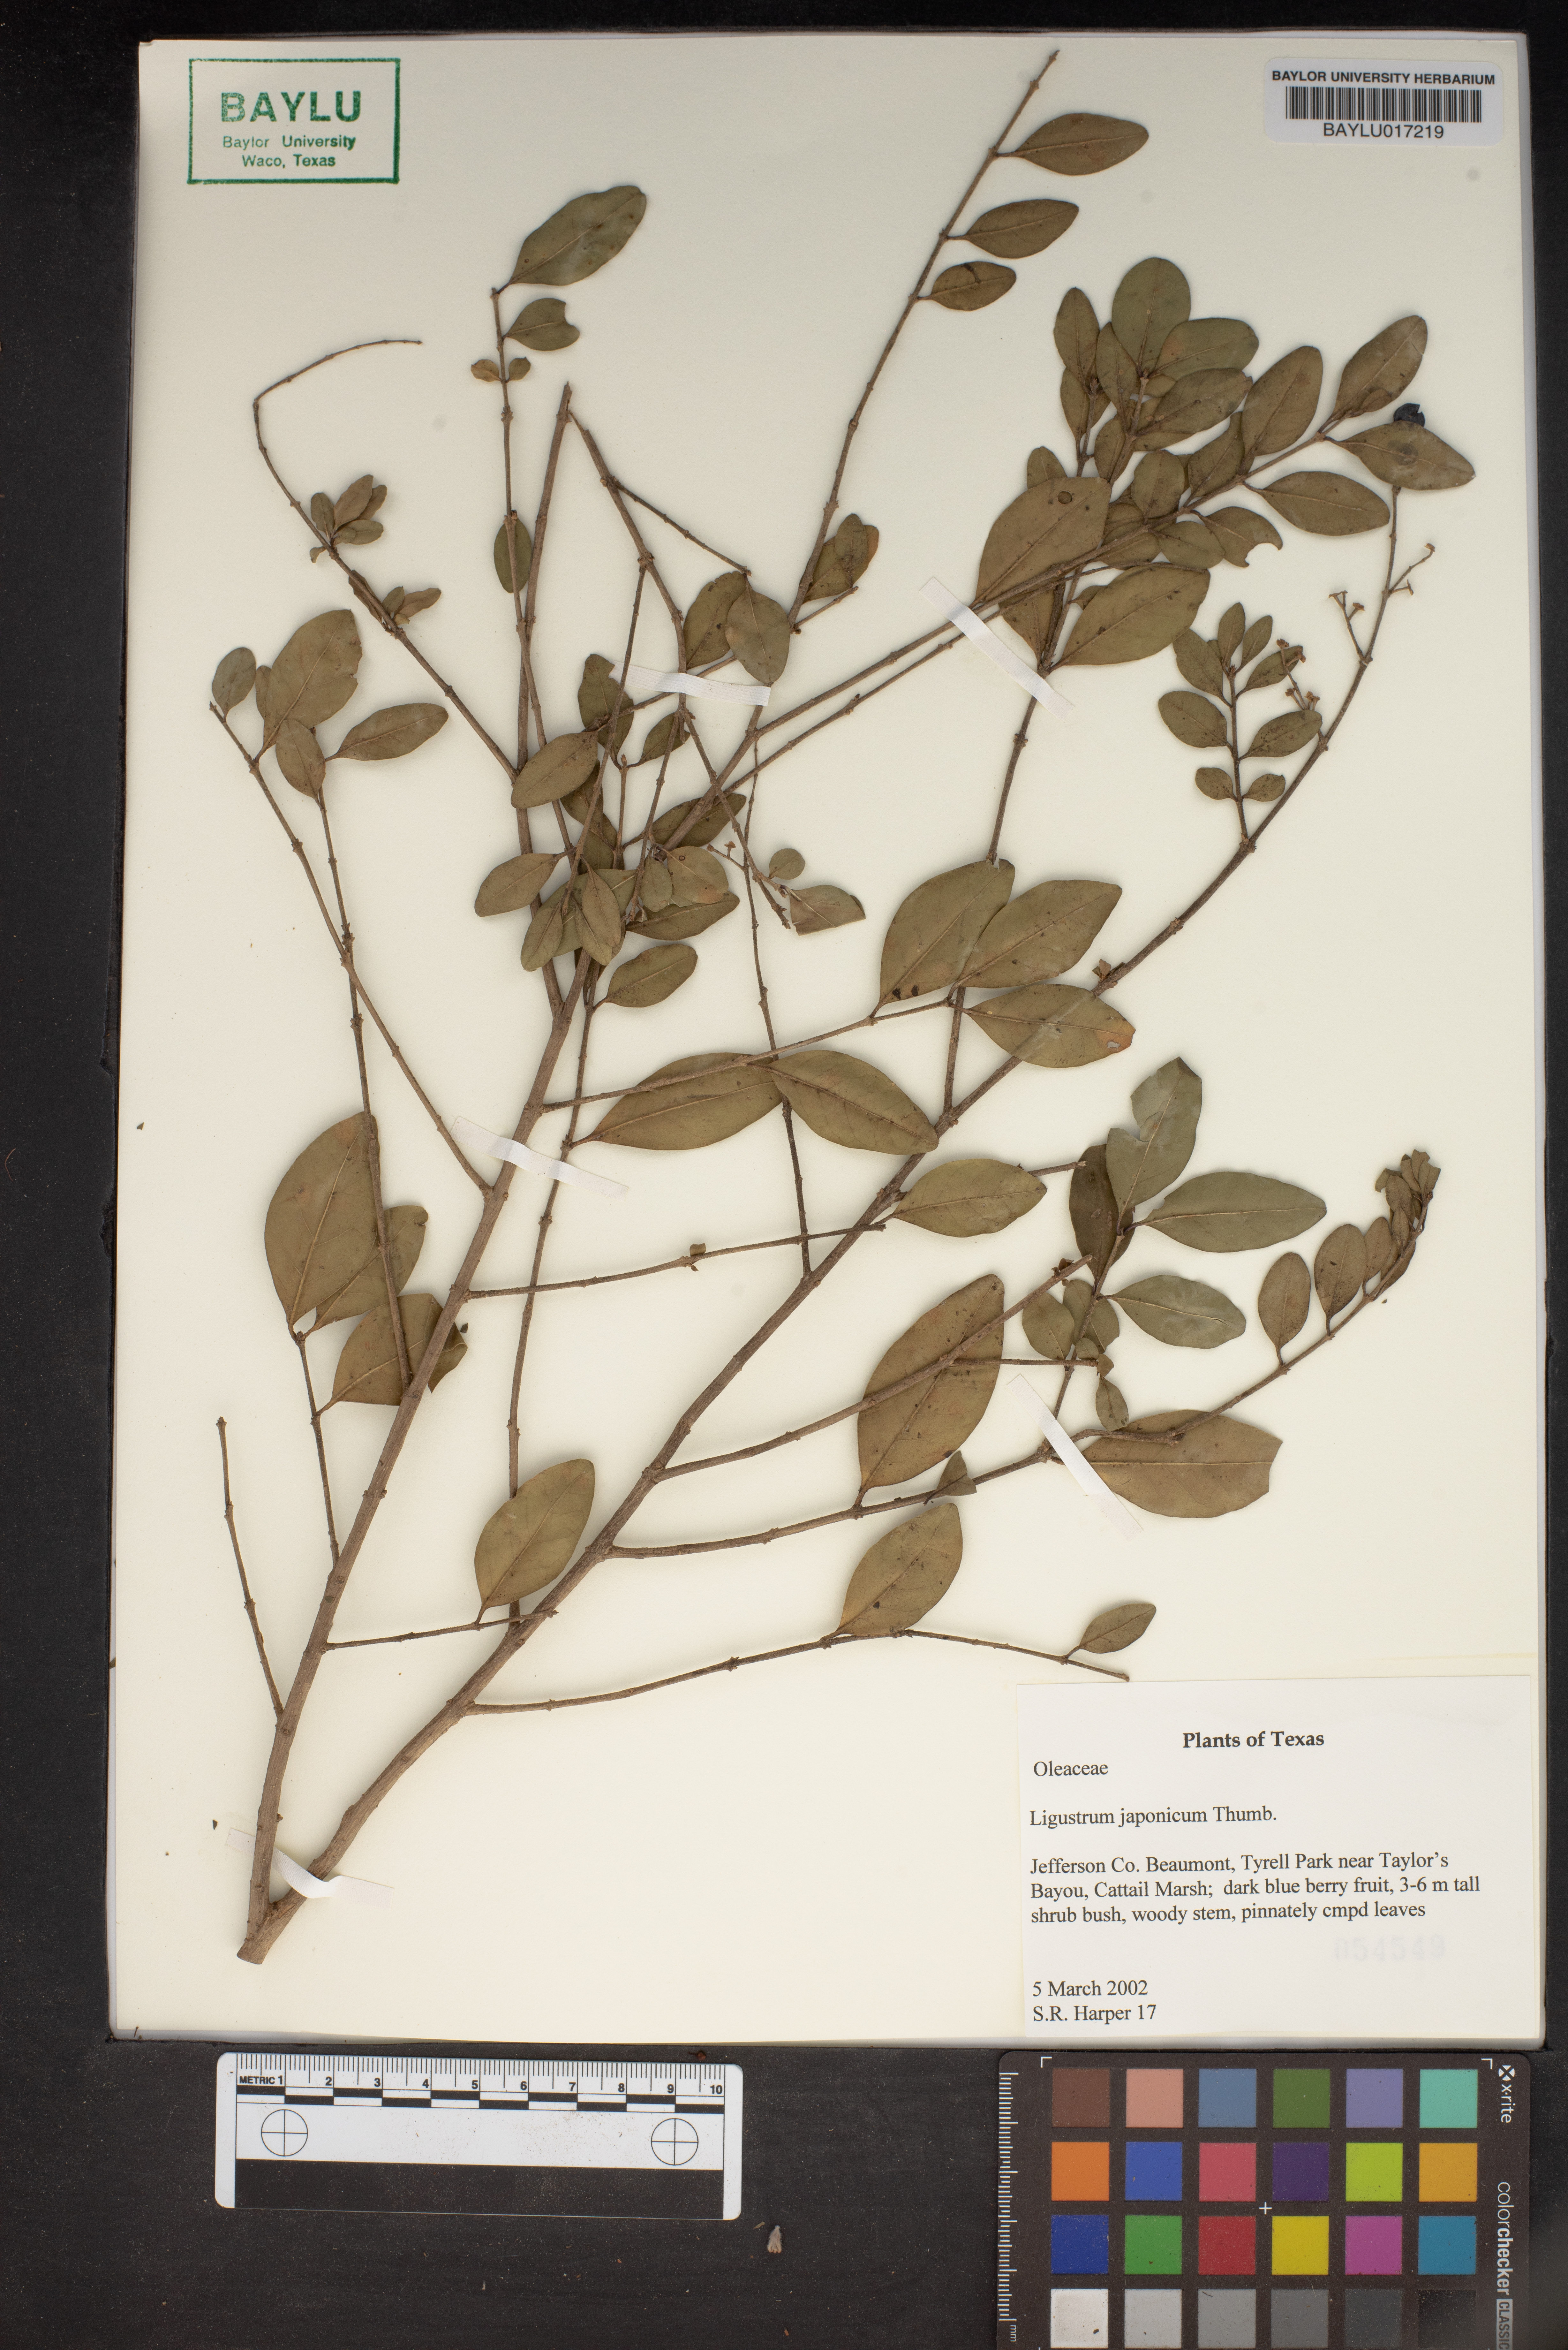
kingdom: Plantae
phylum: Tracheophyta
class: Magnoliopsida
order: Lamiales
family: Oleaceae
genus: Ligustrum
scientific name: Ligustrum japonicum
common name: Japanese privet
